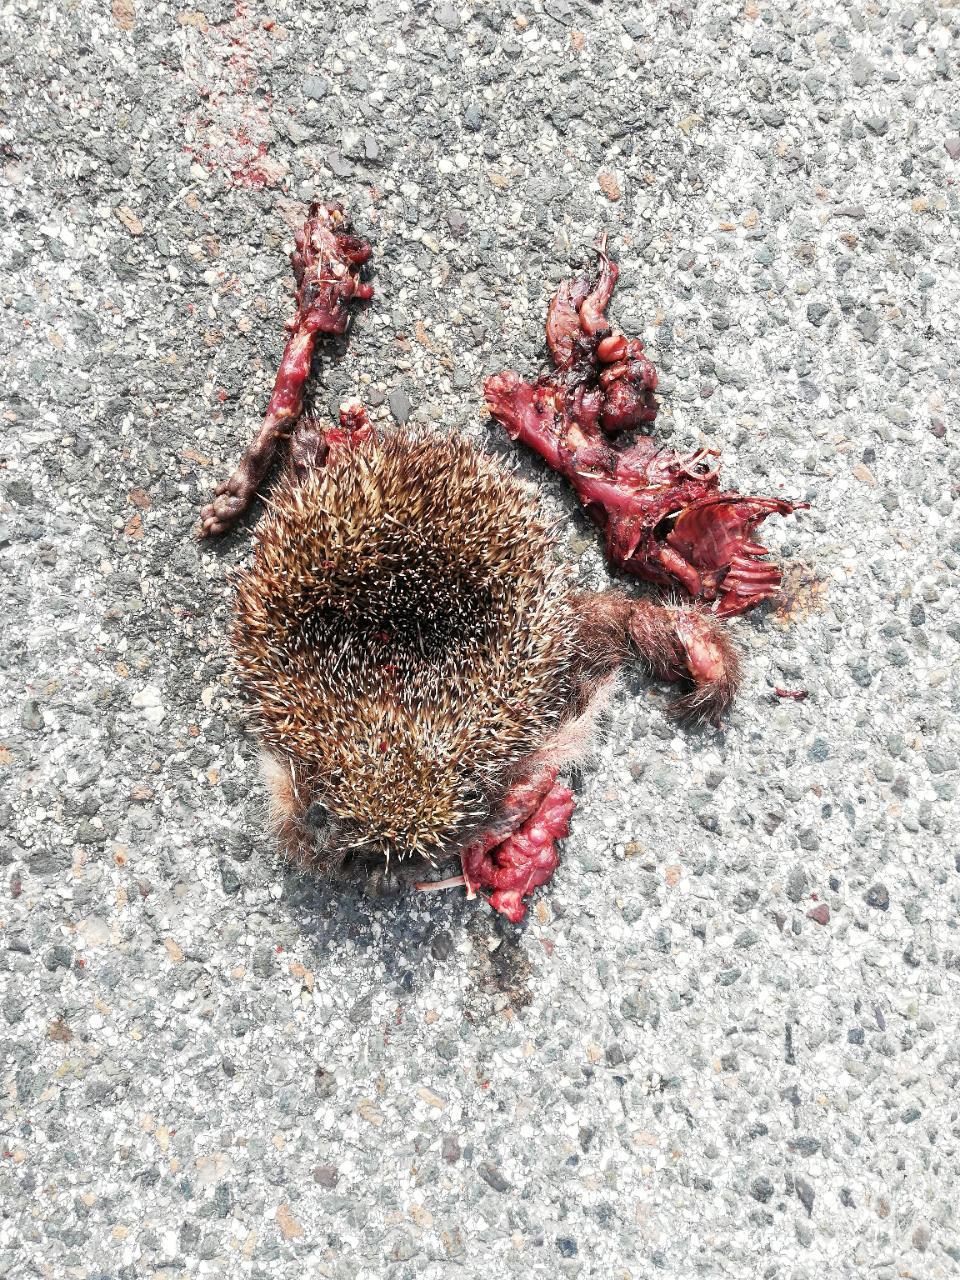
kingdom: Animalia
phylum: Chordata
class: Mammalia
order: Erinaceomorpha
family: Erinaceidae
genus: Erinaceus
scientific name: Erinaceus
